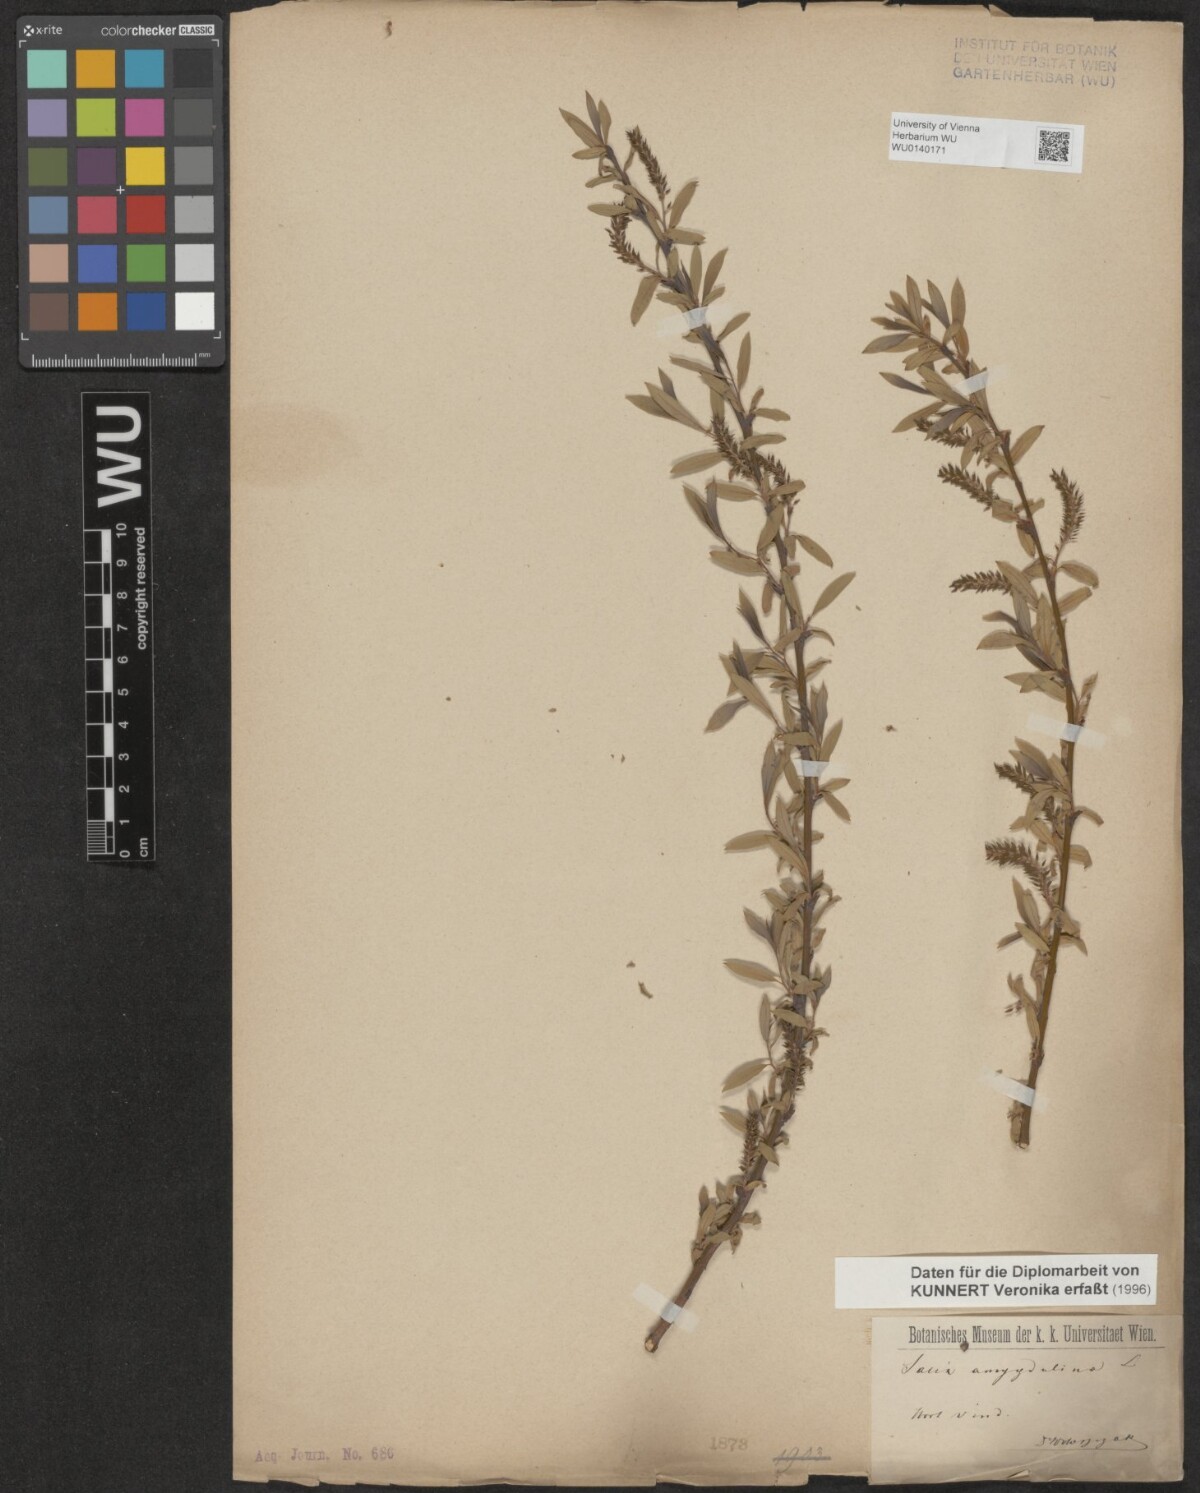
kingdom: Plantae
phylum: Tracheophyta
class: Magnoliopsida
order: Malpighiales
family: Salicaceae
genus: Salix
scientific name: Salix triandra
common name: Almond willow
